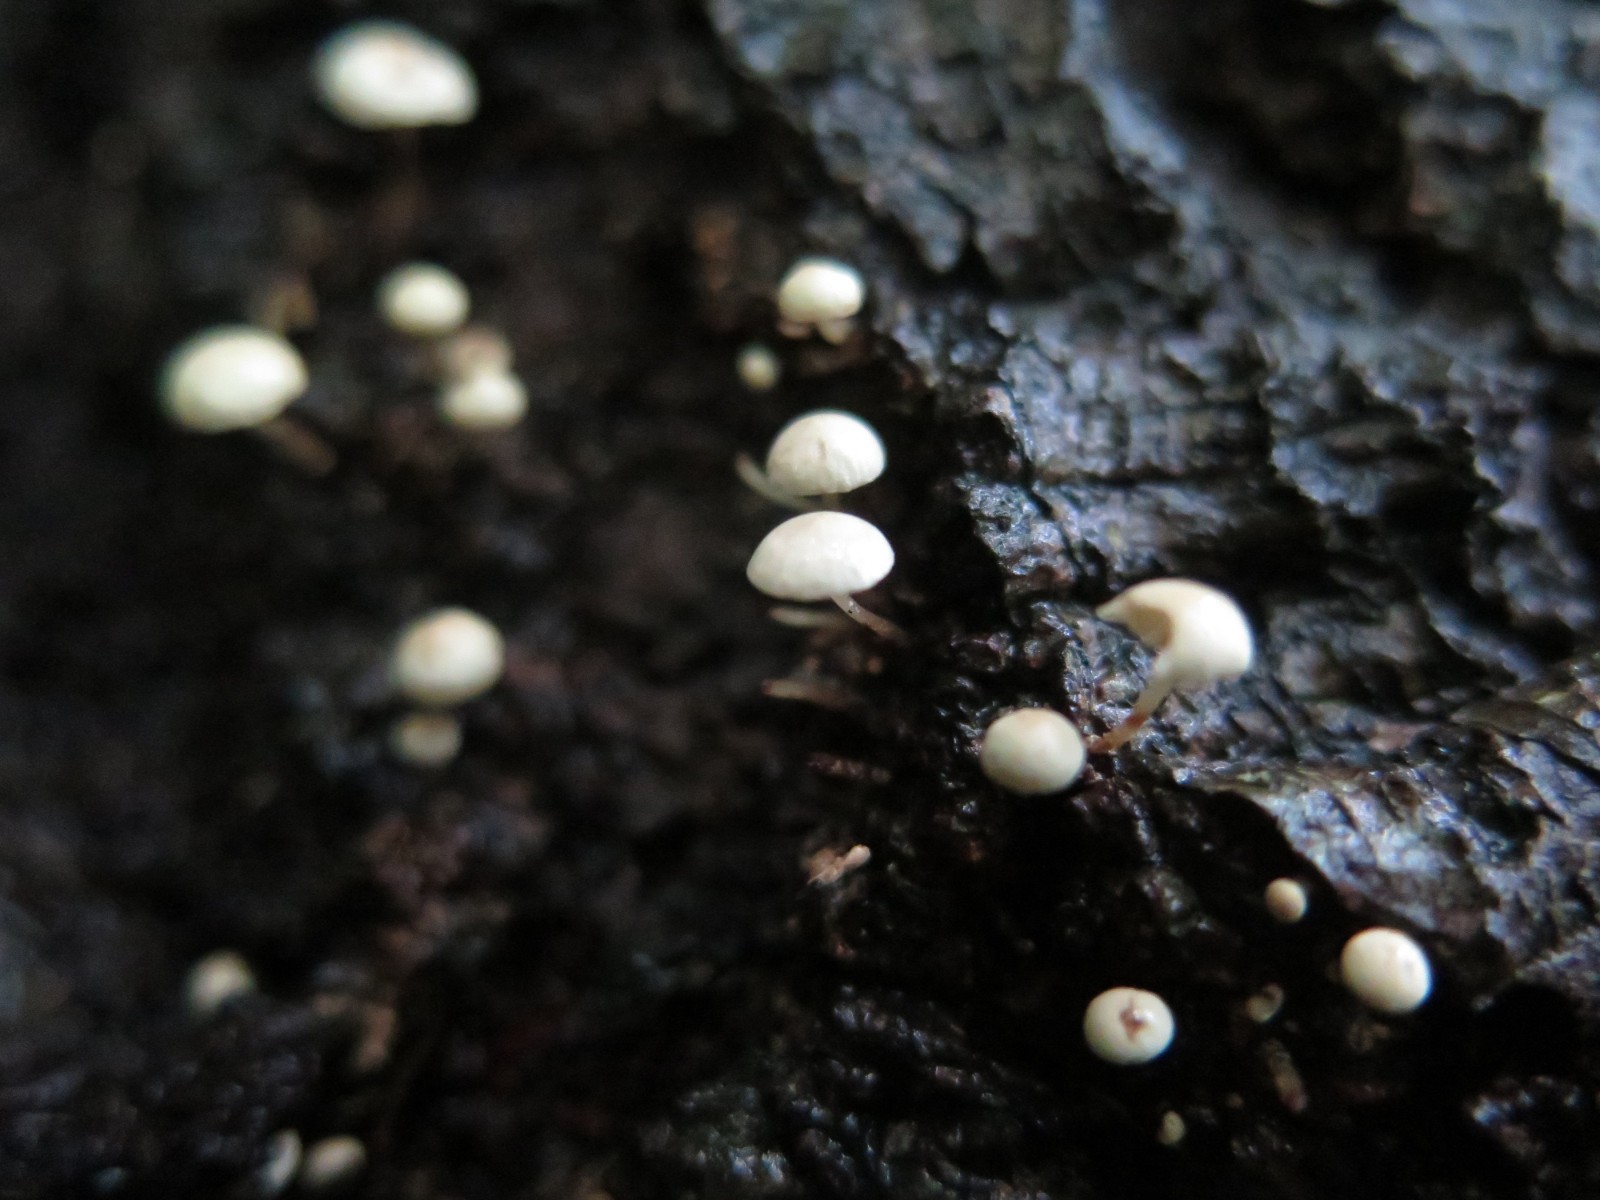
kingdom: Fungi
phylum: Basidiomycota
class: Agaricomycetes
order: Agaricales
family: Omphalotaceae
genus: Collybiopsis
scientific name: Collybiopsis ramealis
